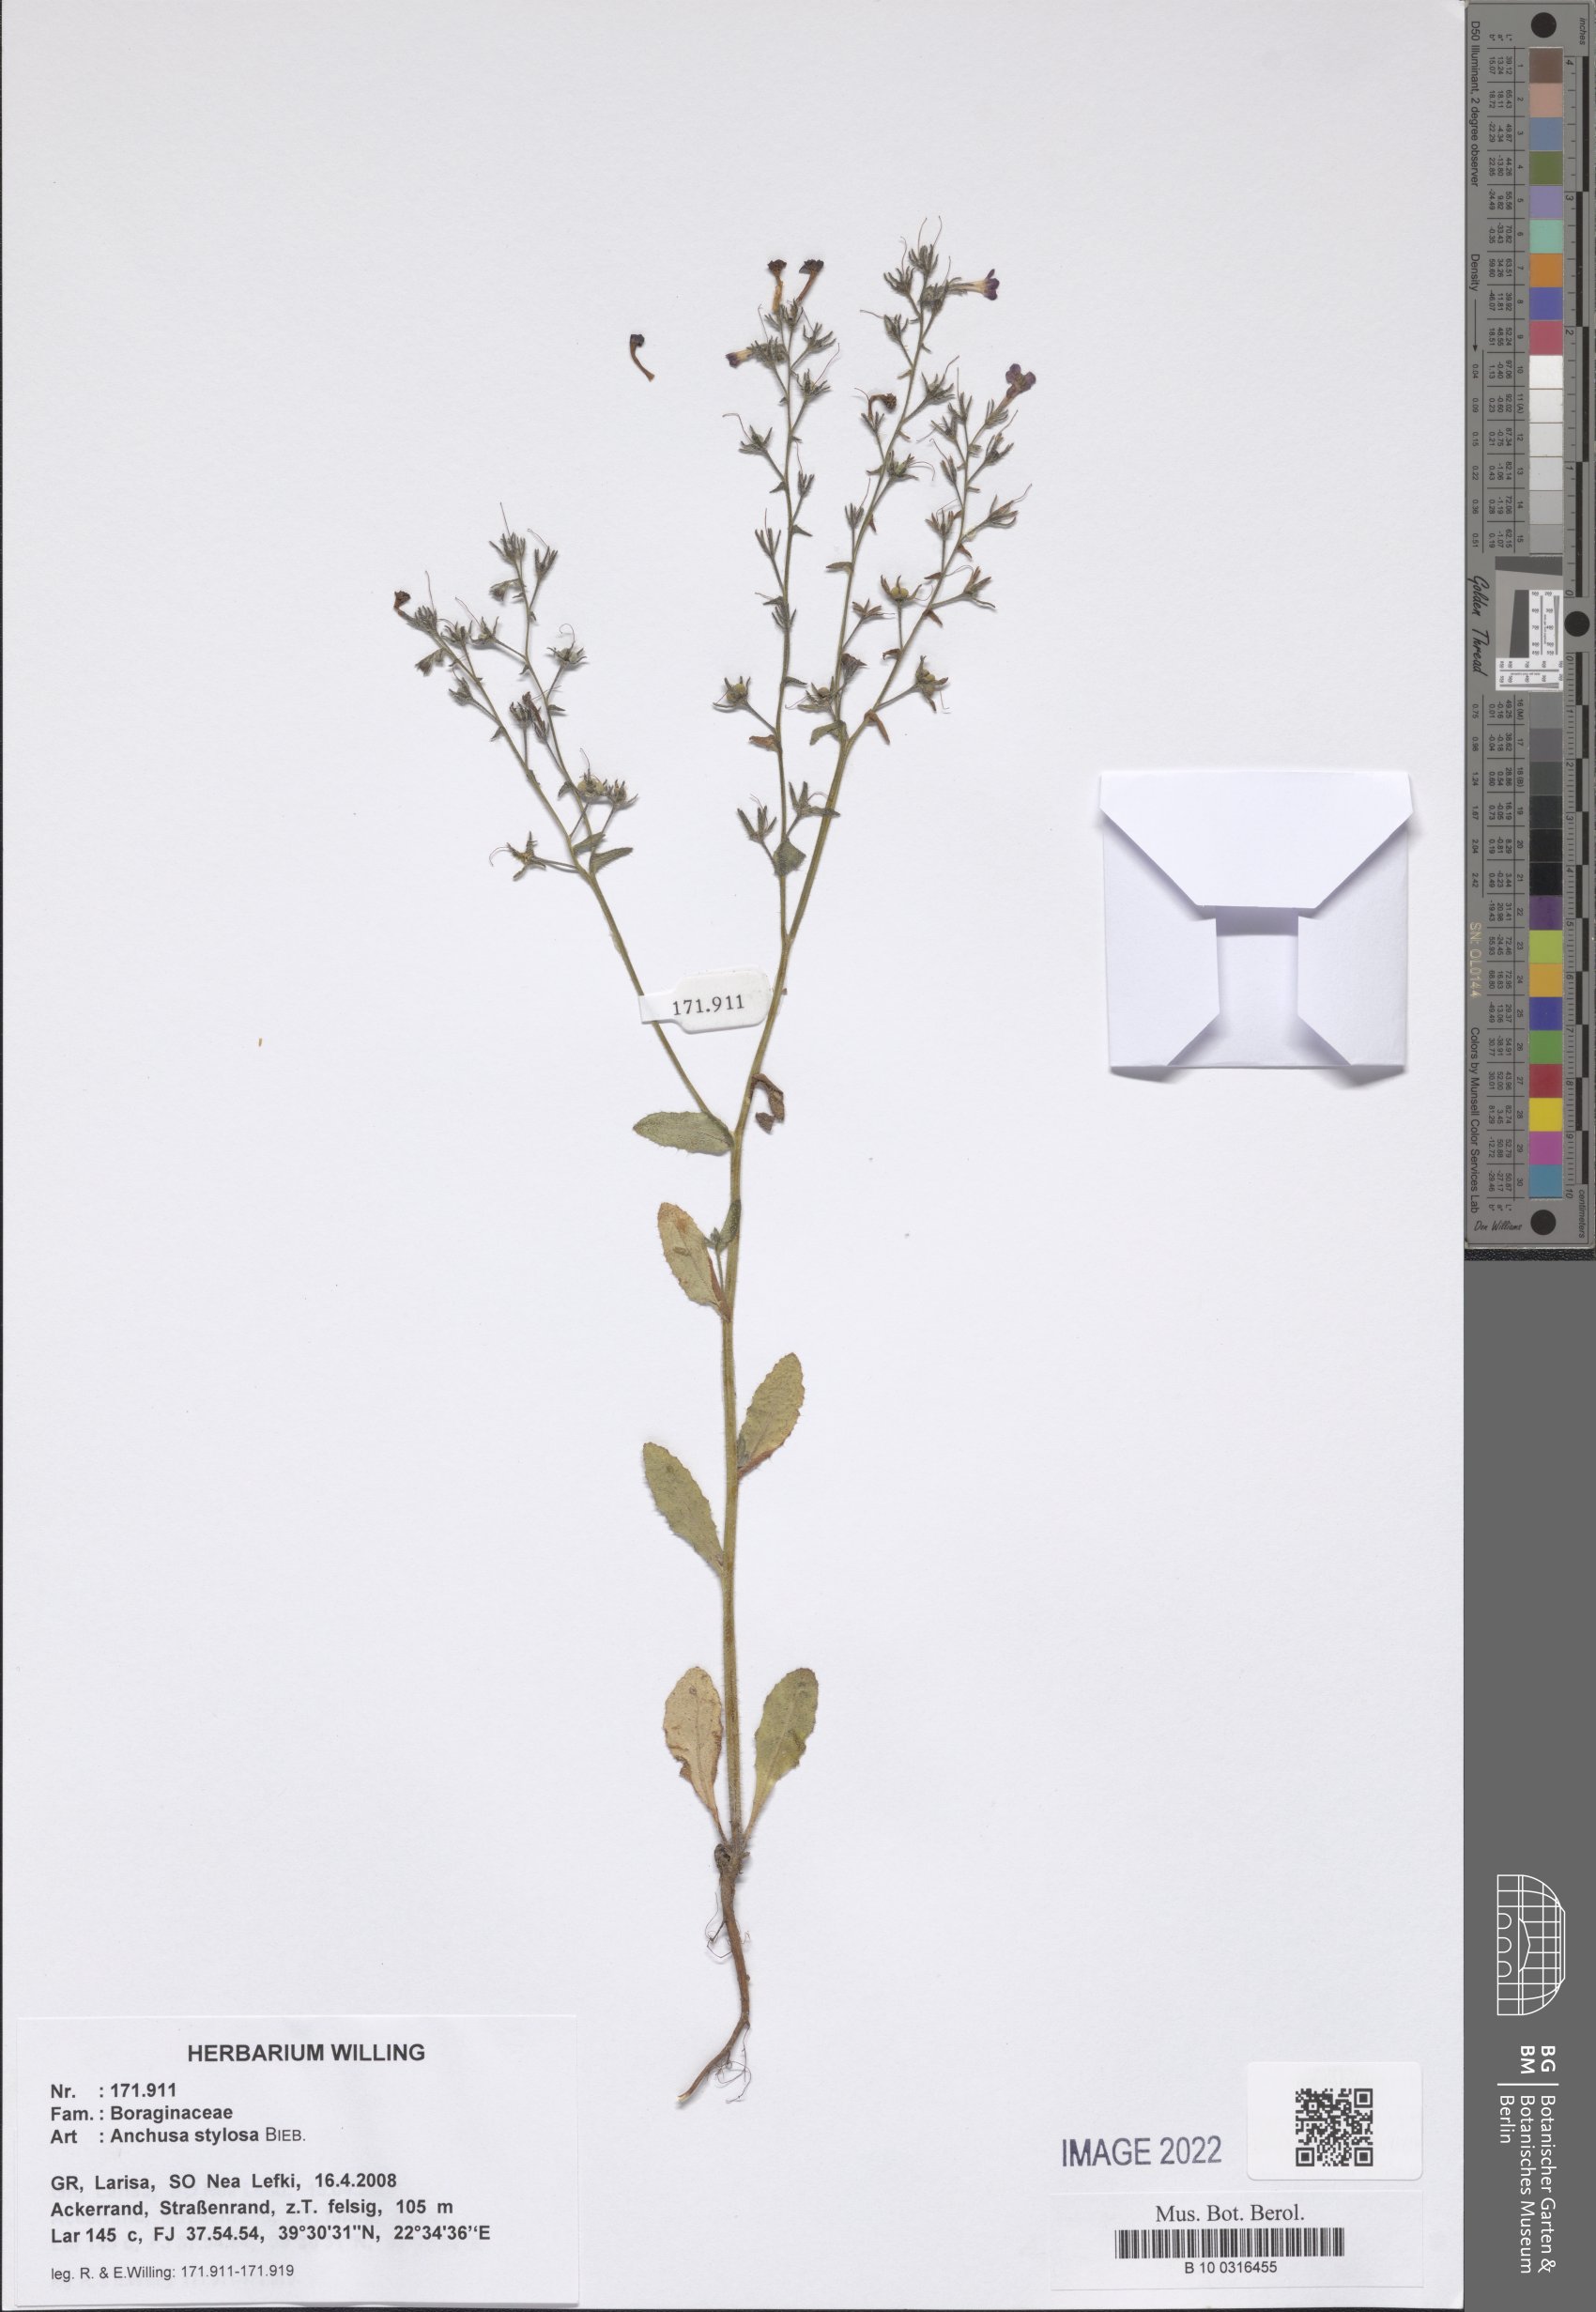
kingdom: Plantae
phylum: Tracheophyta
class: Magnoliopsida
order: Boraginales
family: Boraginaceae
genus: Anchusa
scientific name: Anchusa stylosa
